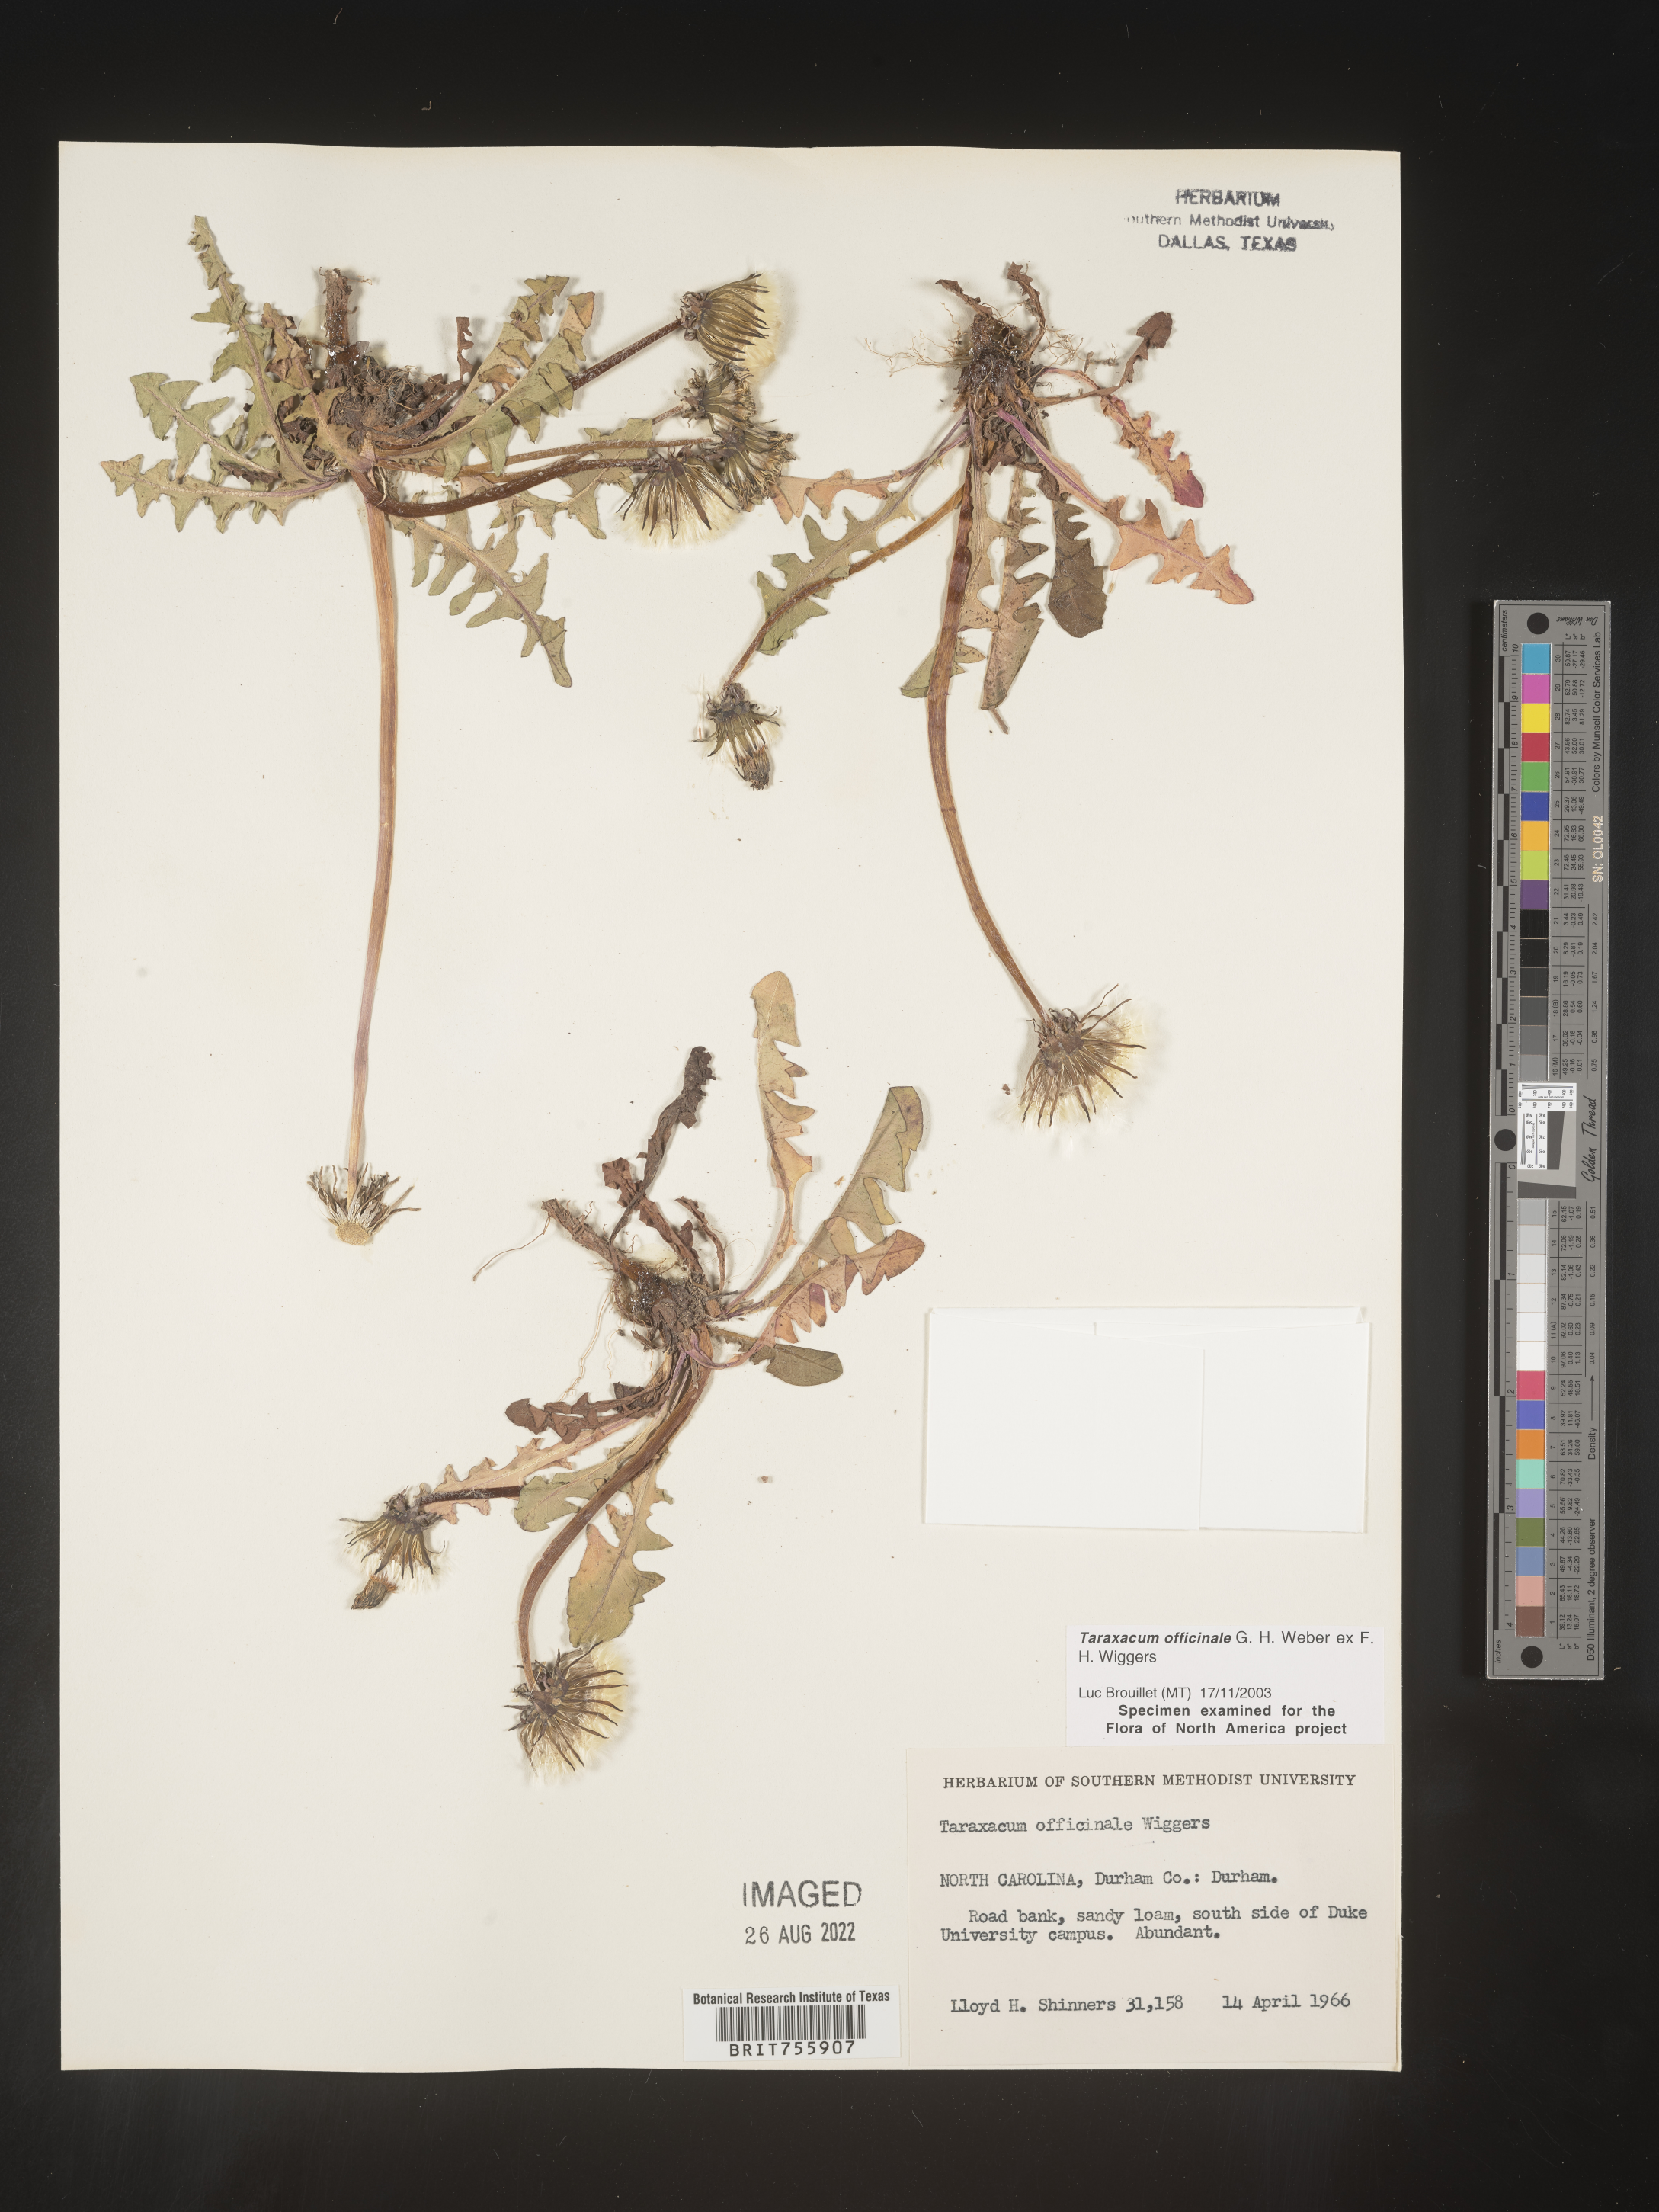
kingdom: Plantae
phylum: Tracheophyta
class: Magnoliopsida
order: Asterales
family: Asteraceae
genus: Taraxacum
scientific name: Taraxacum officinale
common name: Common dandelion
